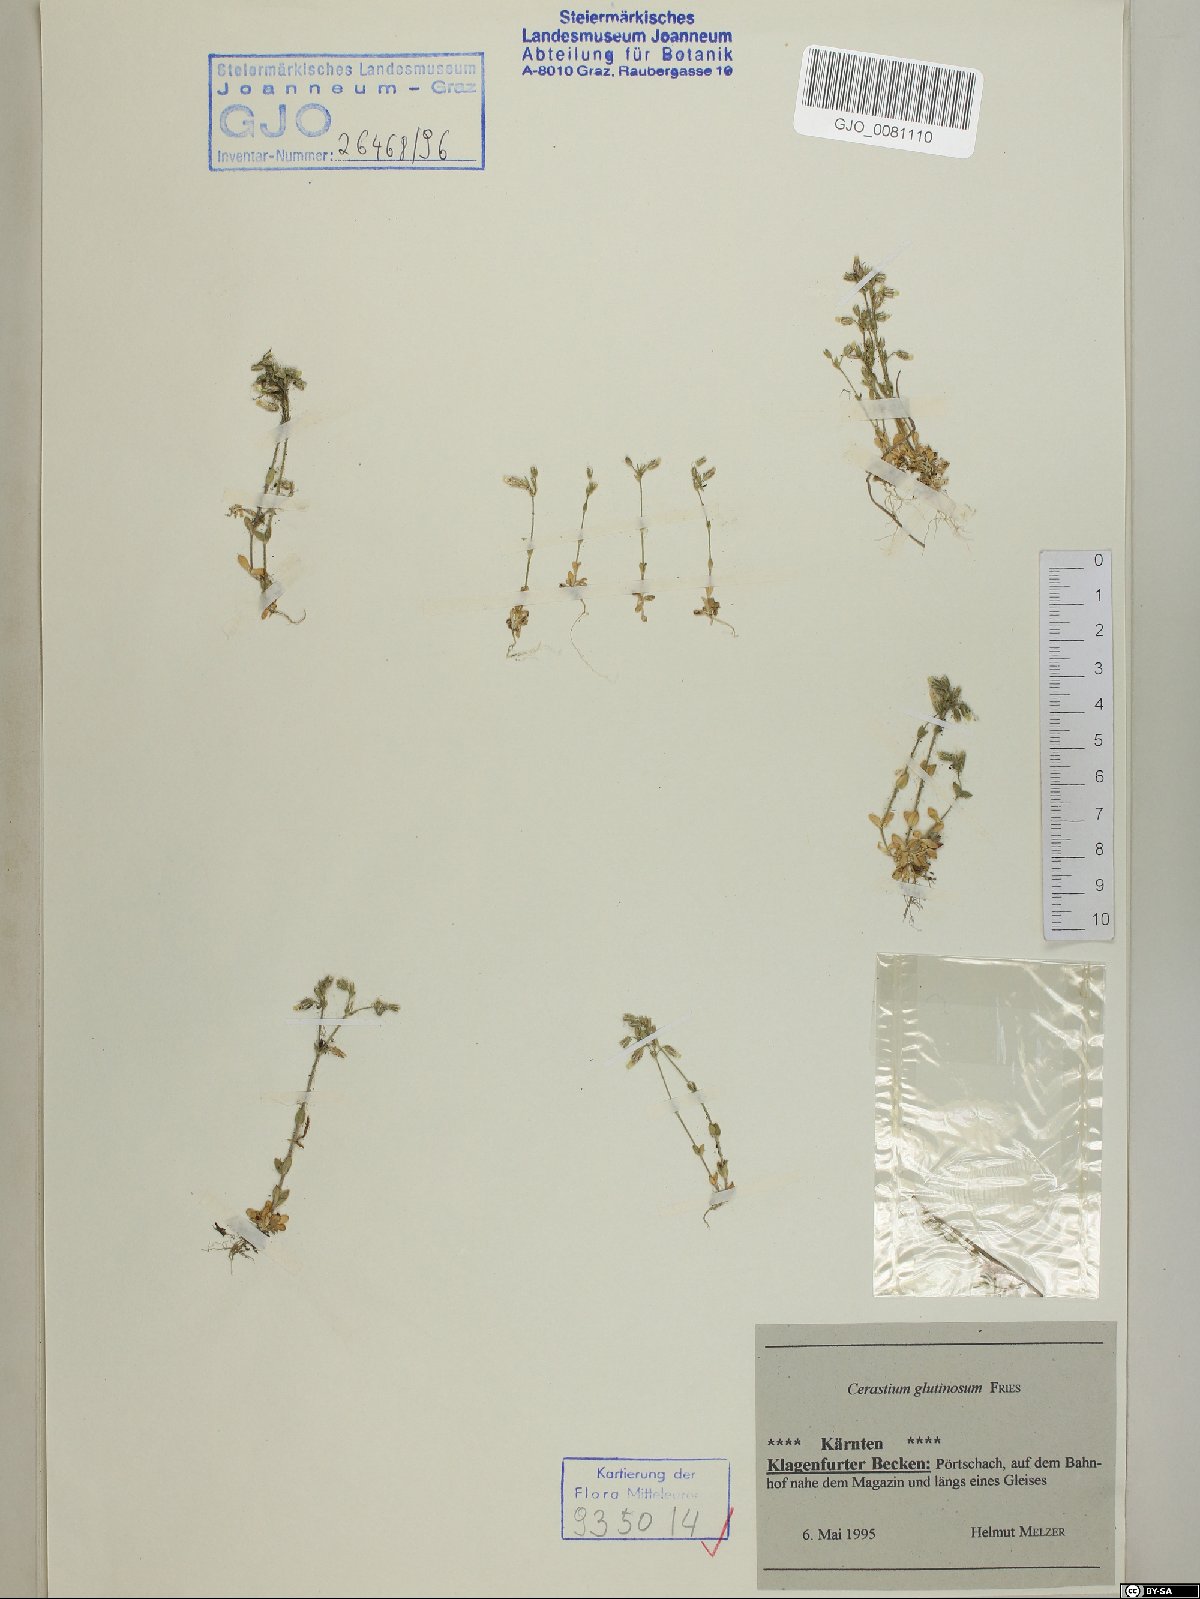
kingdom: Plantae
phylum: Tracheophyta
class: Magnoliopsida
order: Caryophyllales
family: Caryophyllaceae
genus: Cerastium
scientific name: Cerastium glutinosum
